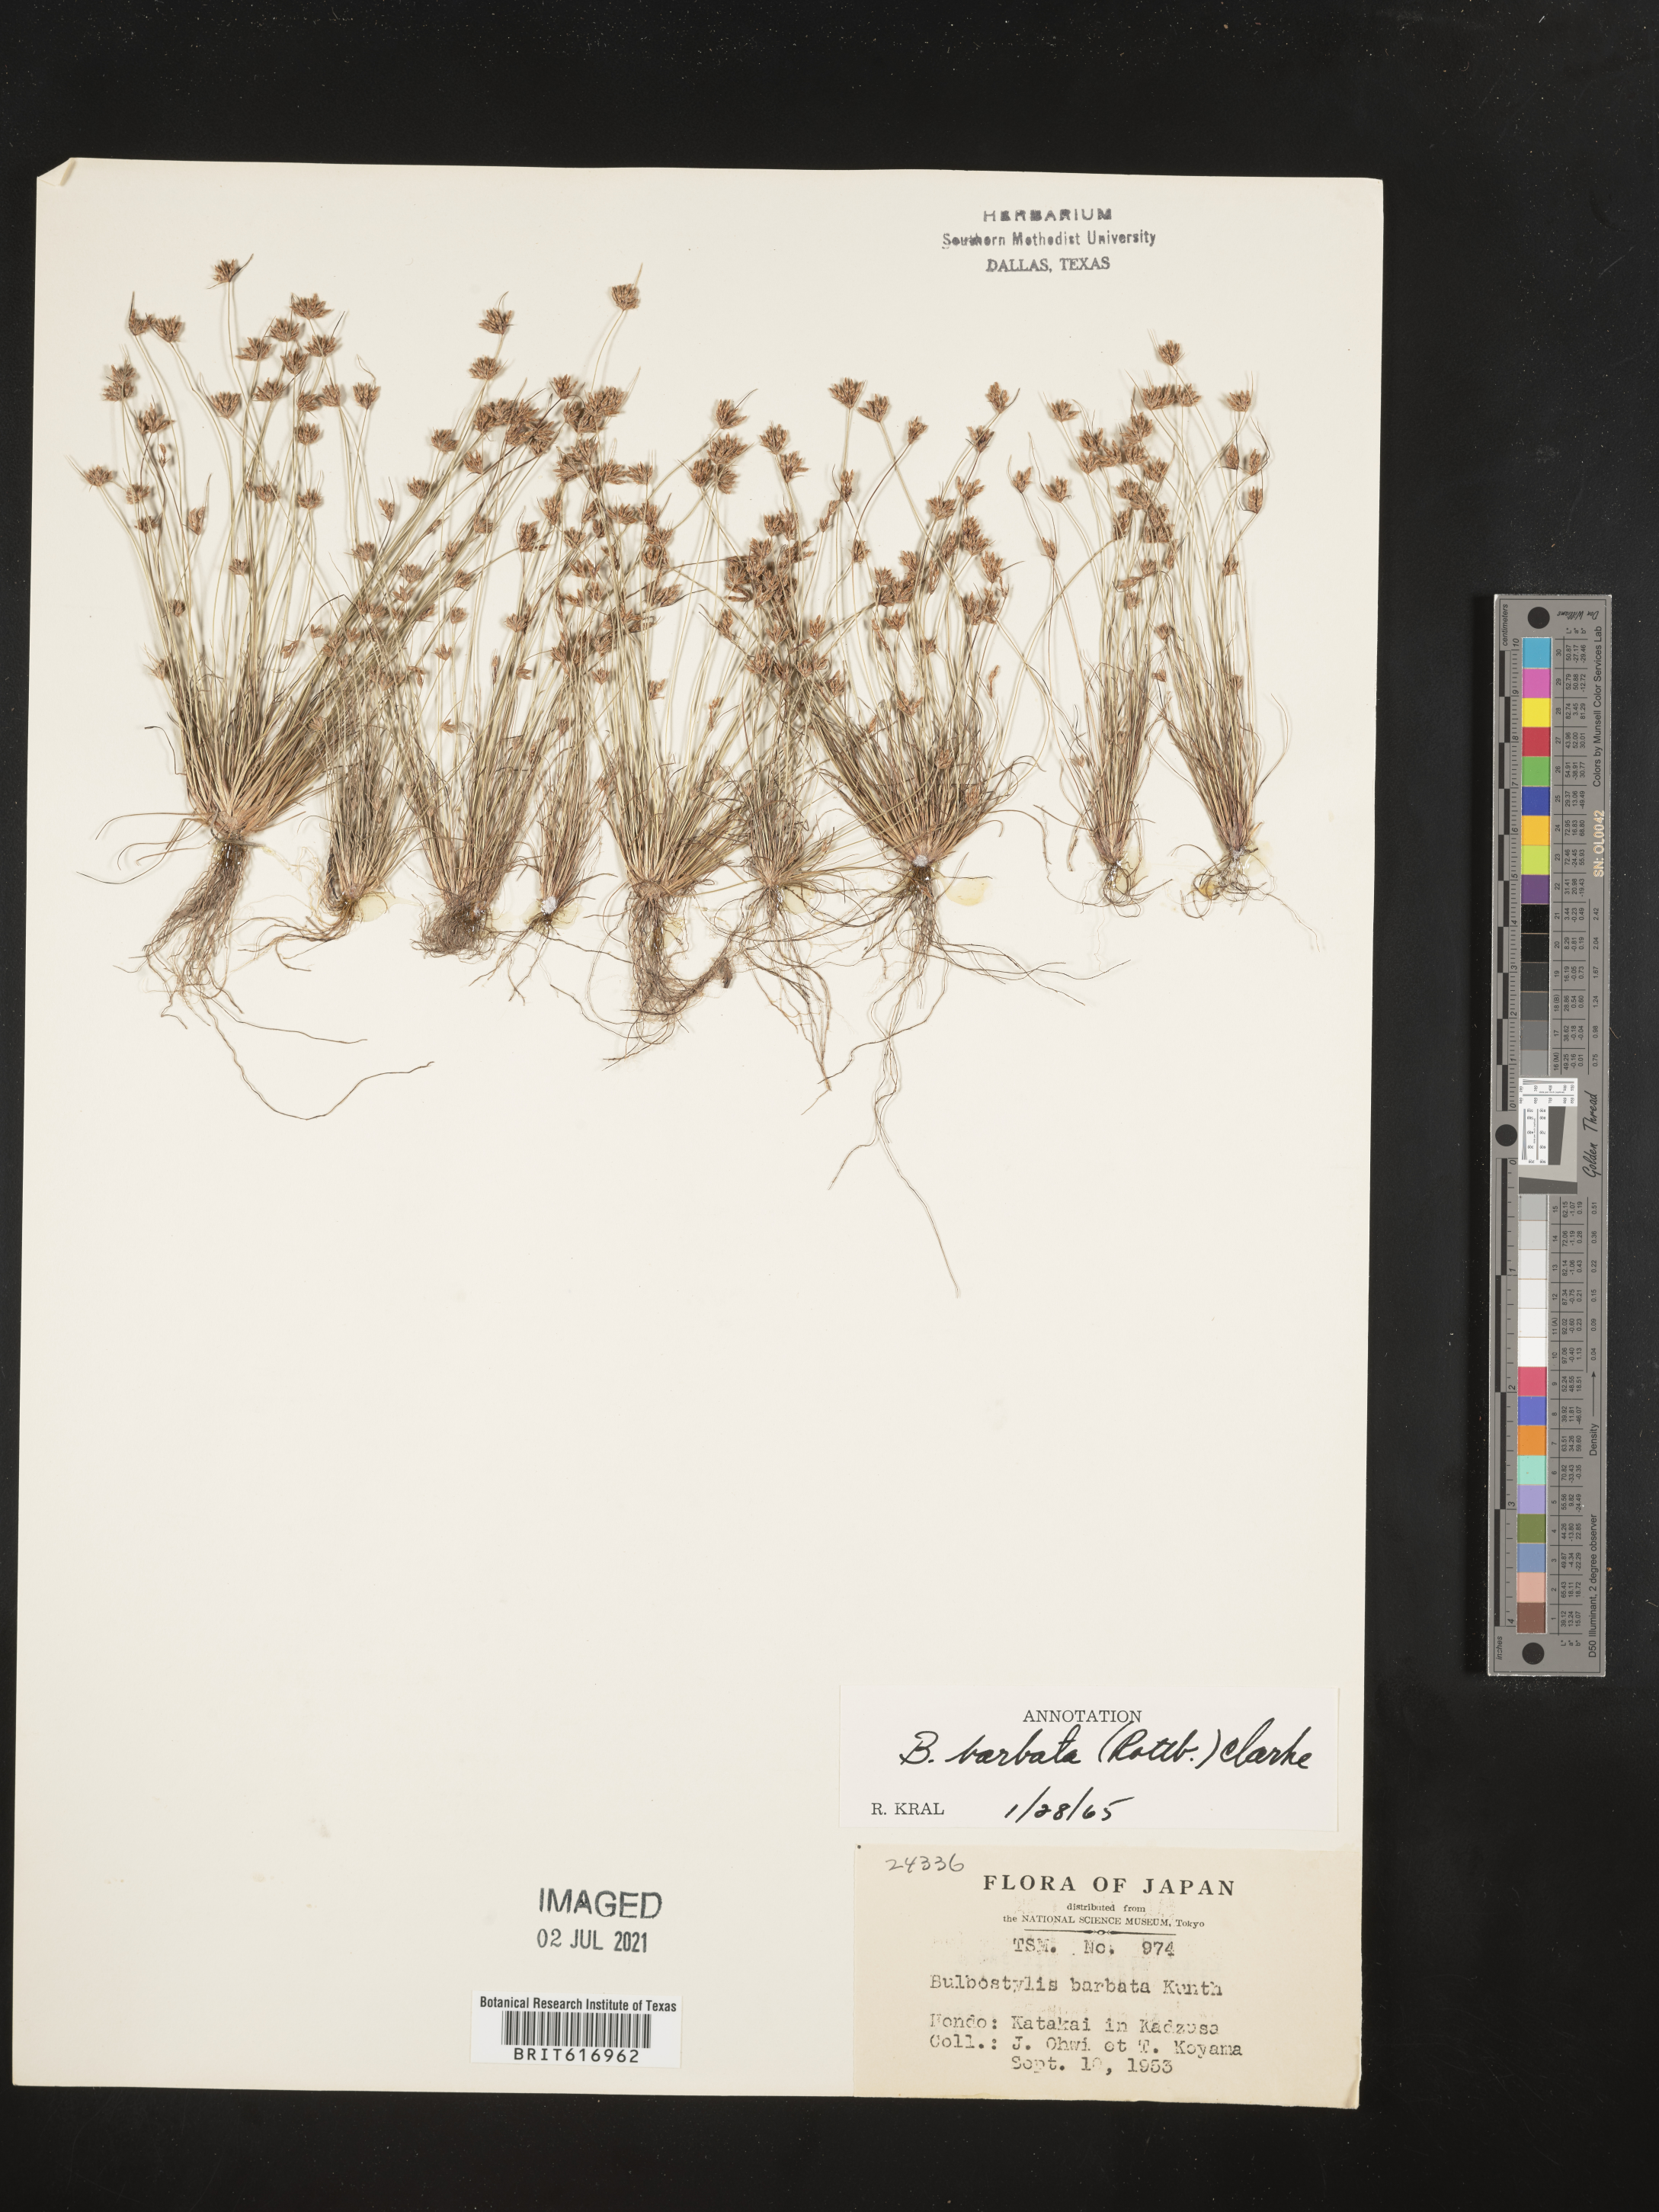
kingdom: Plantae
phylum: Tracheophyta
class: Liliopsida
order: Poales
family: Cyperaceae
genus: Bulbostylis
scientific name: Bulbostylis barbata
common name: Watergrass
